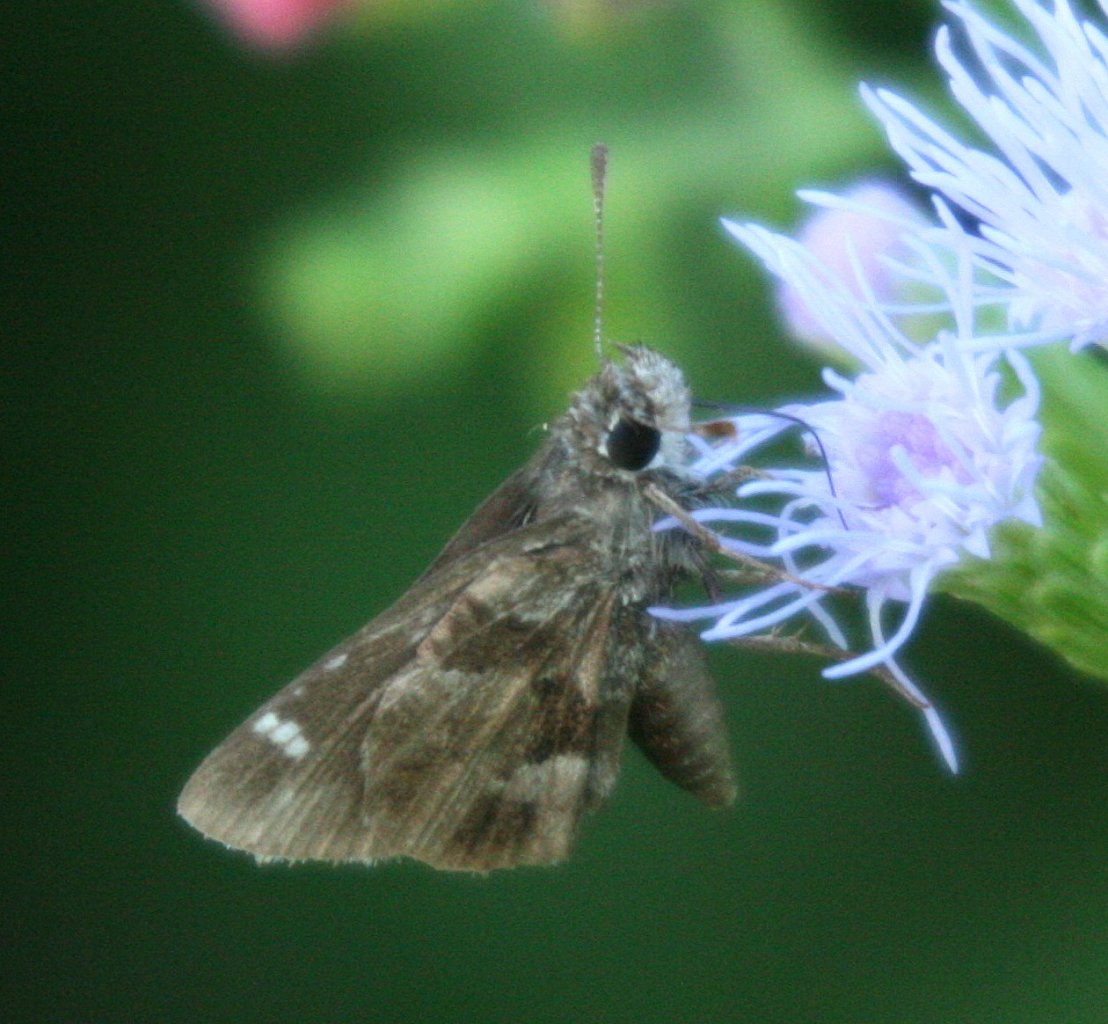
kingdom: Animalia
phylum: Arthropoda
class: Insecta
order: Lepidoptera
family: Hesperiidae
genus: Mastor
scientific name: Mastor nysa
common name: Nysa Roadside-Skipper
